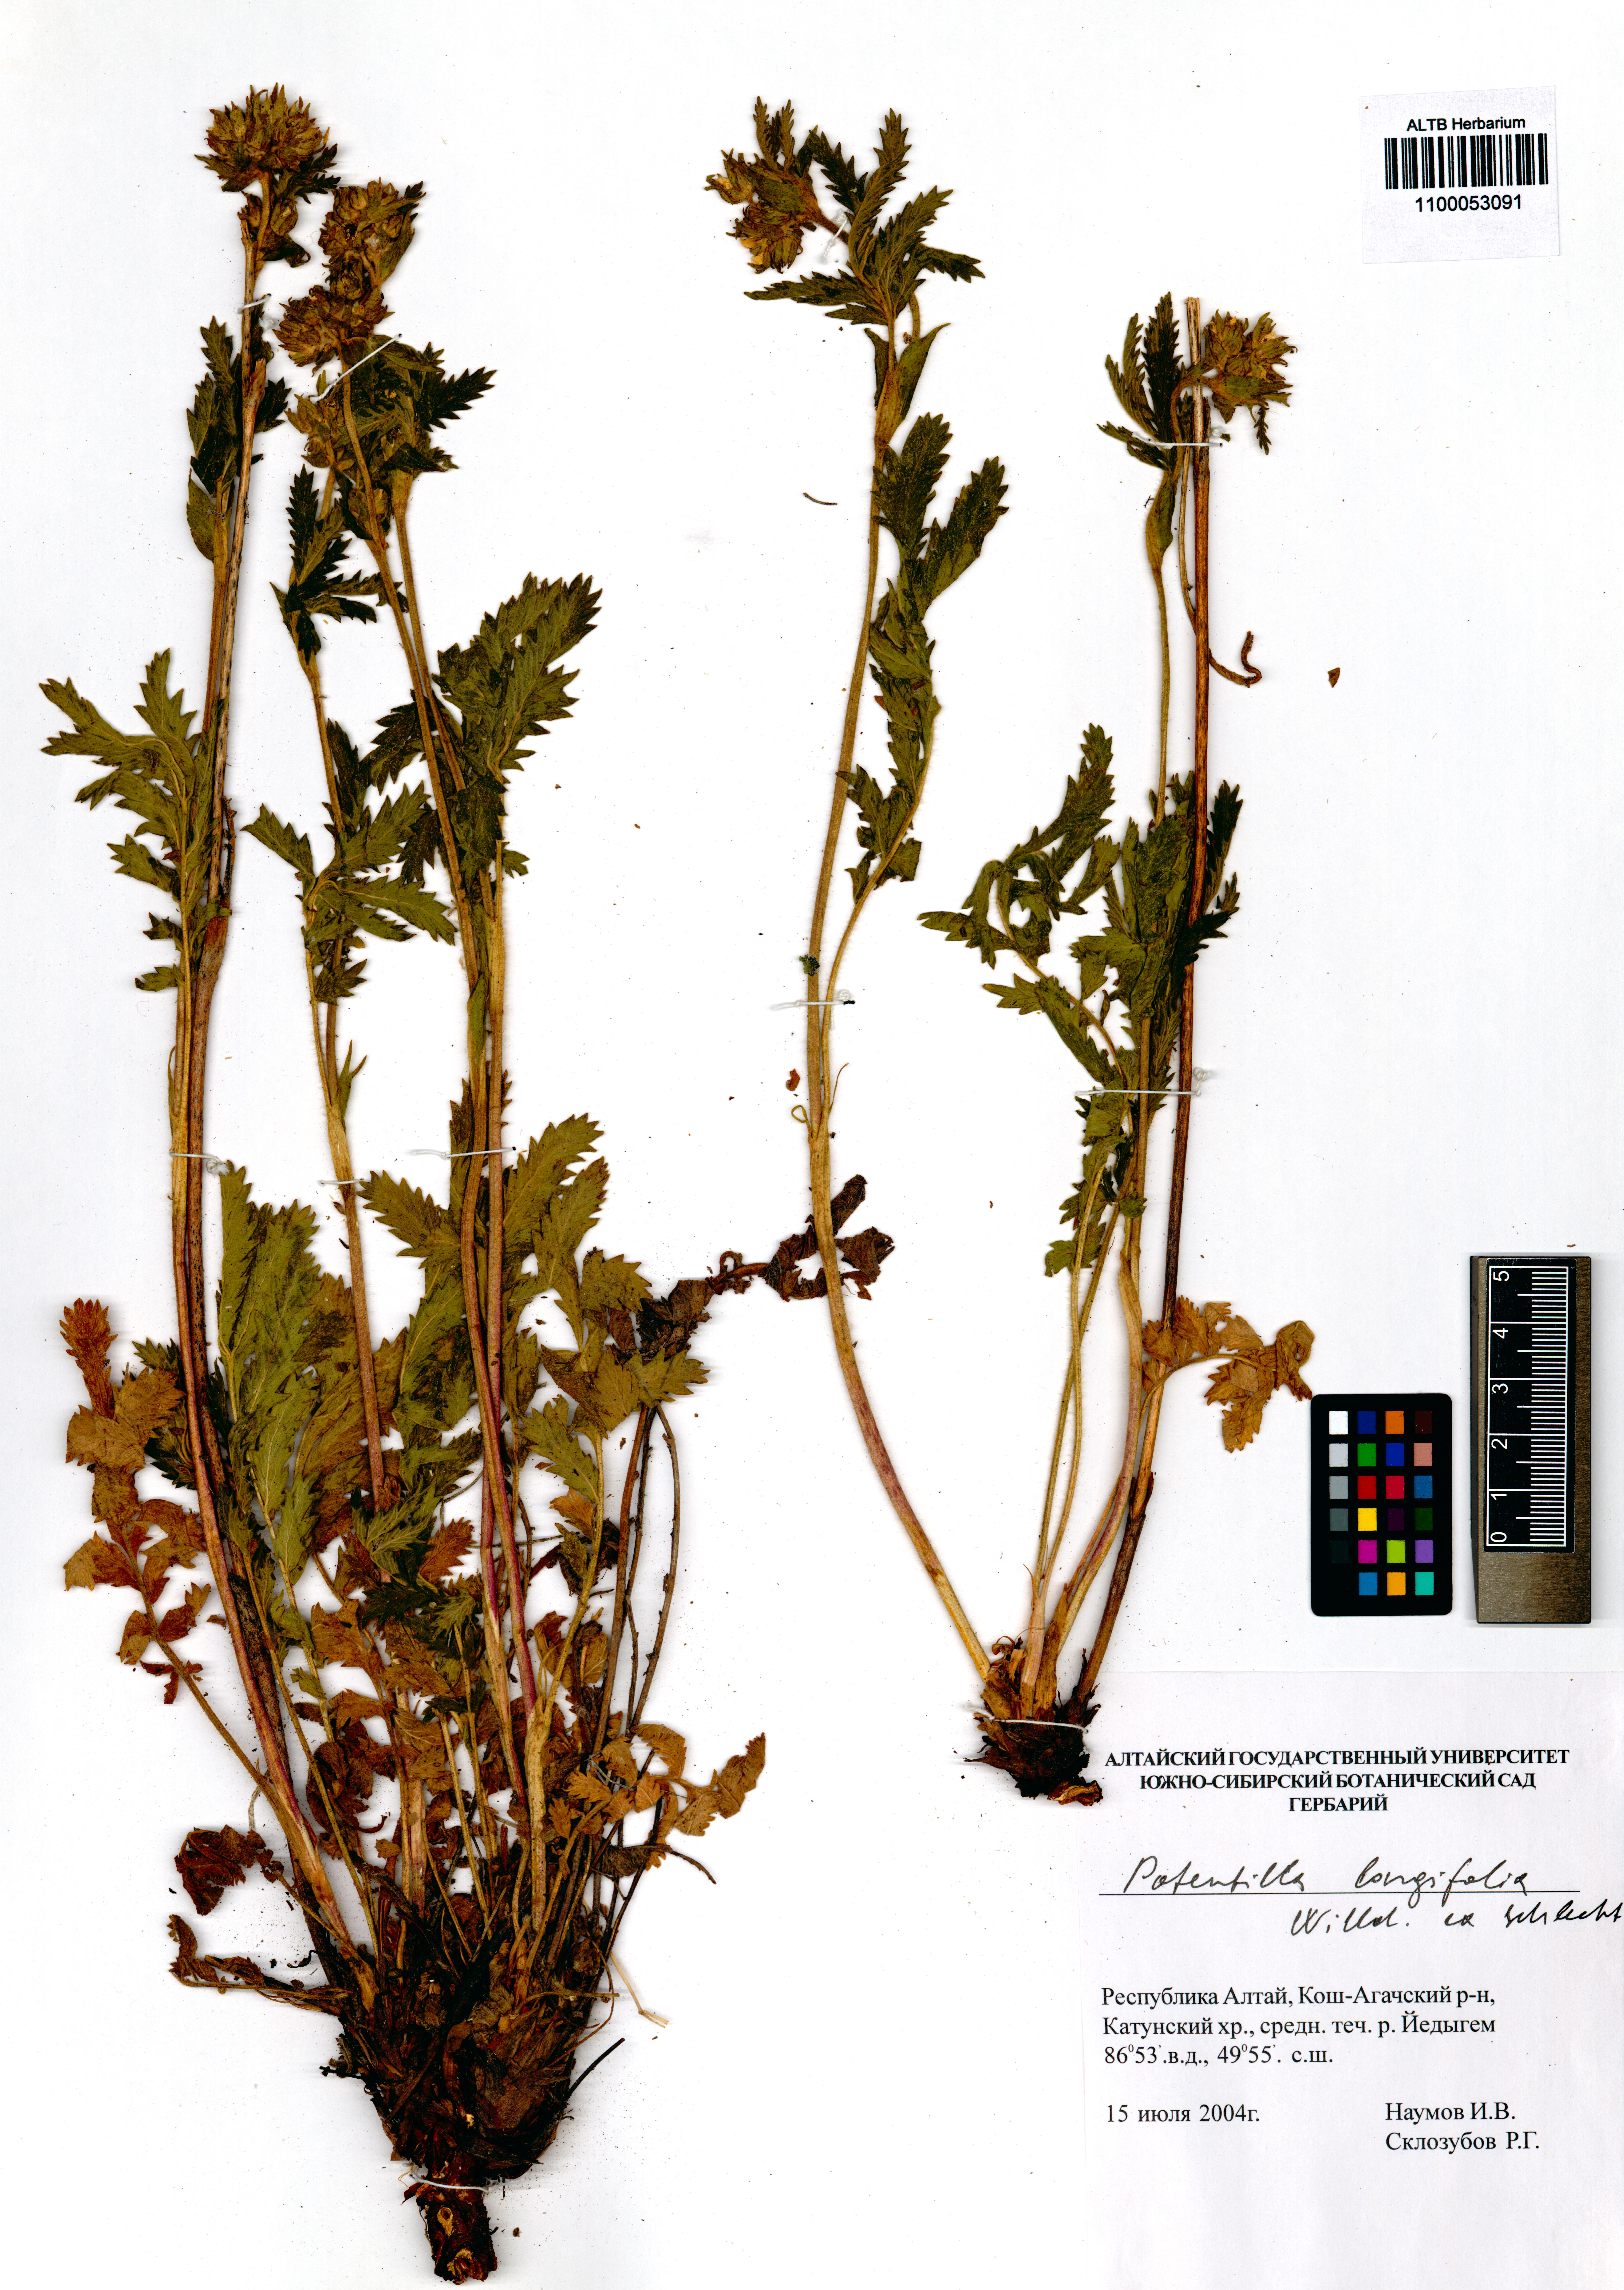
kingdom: Plantae
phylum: Tracheophyta
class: Magnoliopsida
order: Rosales
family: Rosaceae
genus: Potentilla
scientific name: Potentilla longifolia
